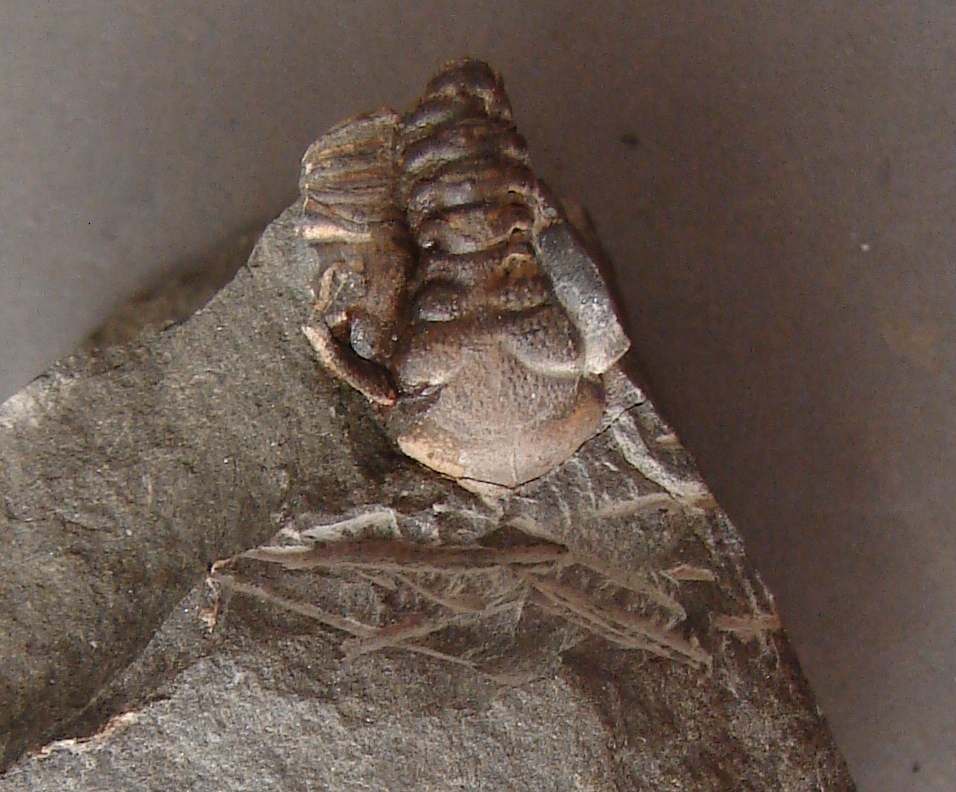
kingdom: Animalia
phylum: Arthropoda
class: Trilobita
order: Phacopida
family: Acastidae
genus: Kayserops
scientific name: Kayserops daleidensis
